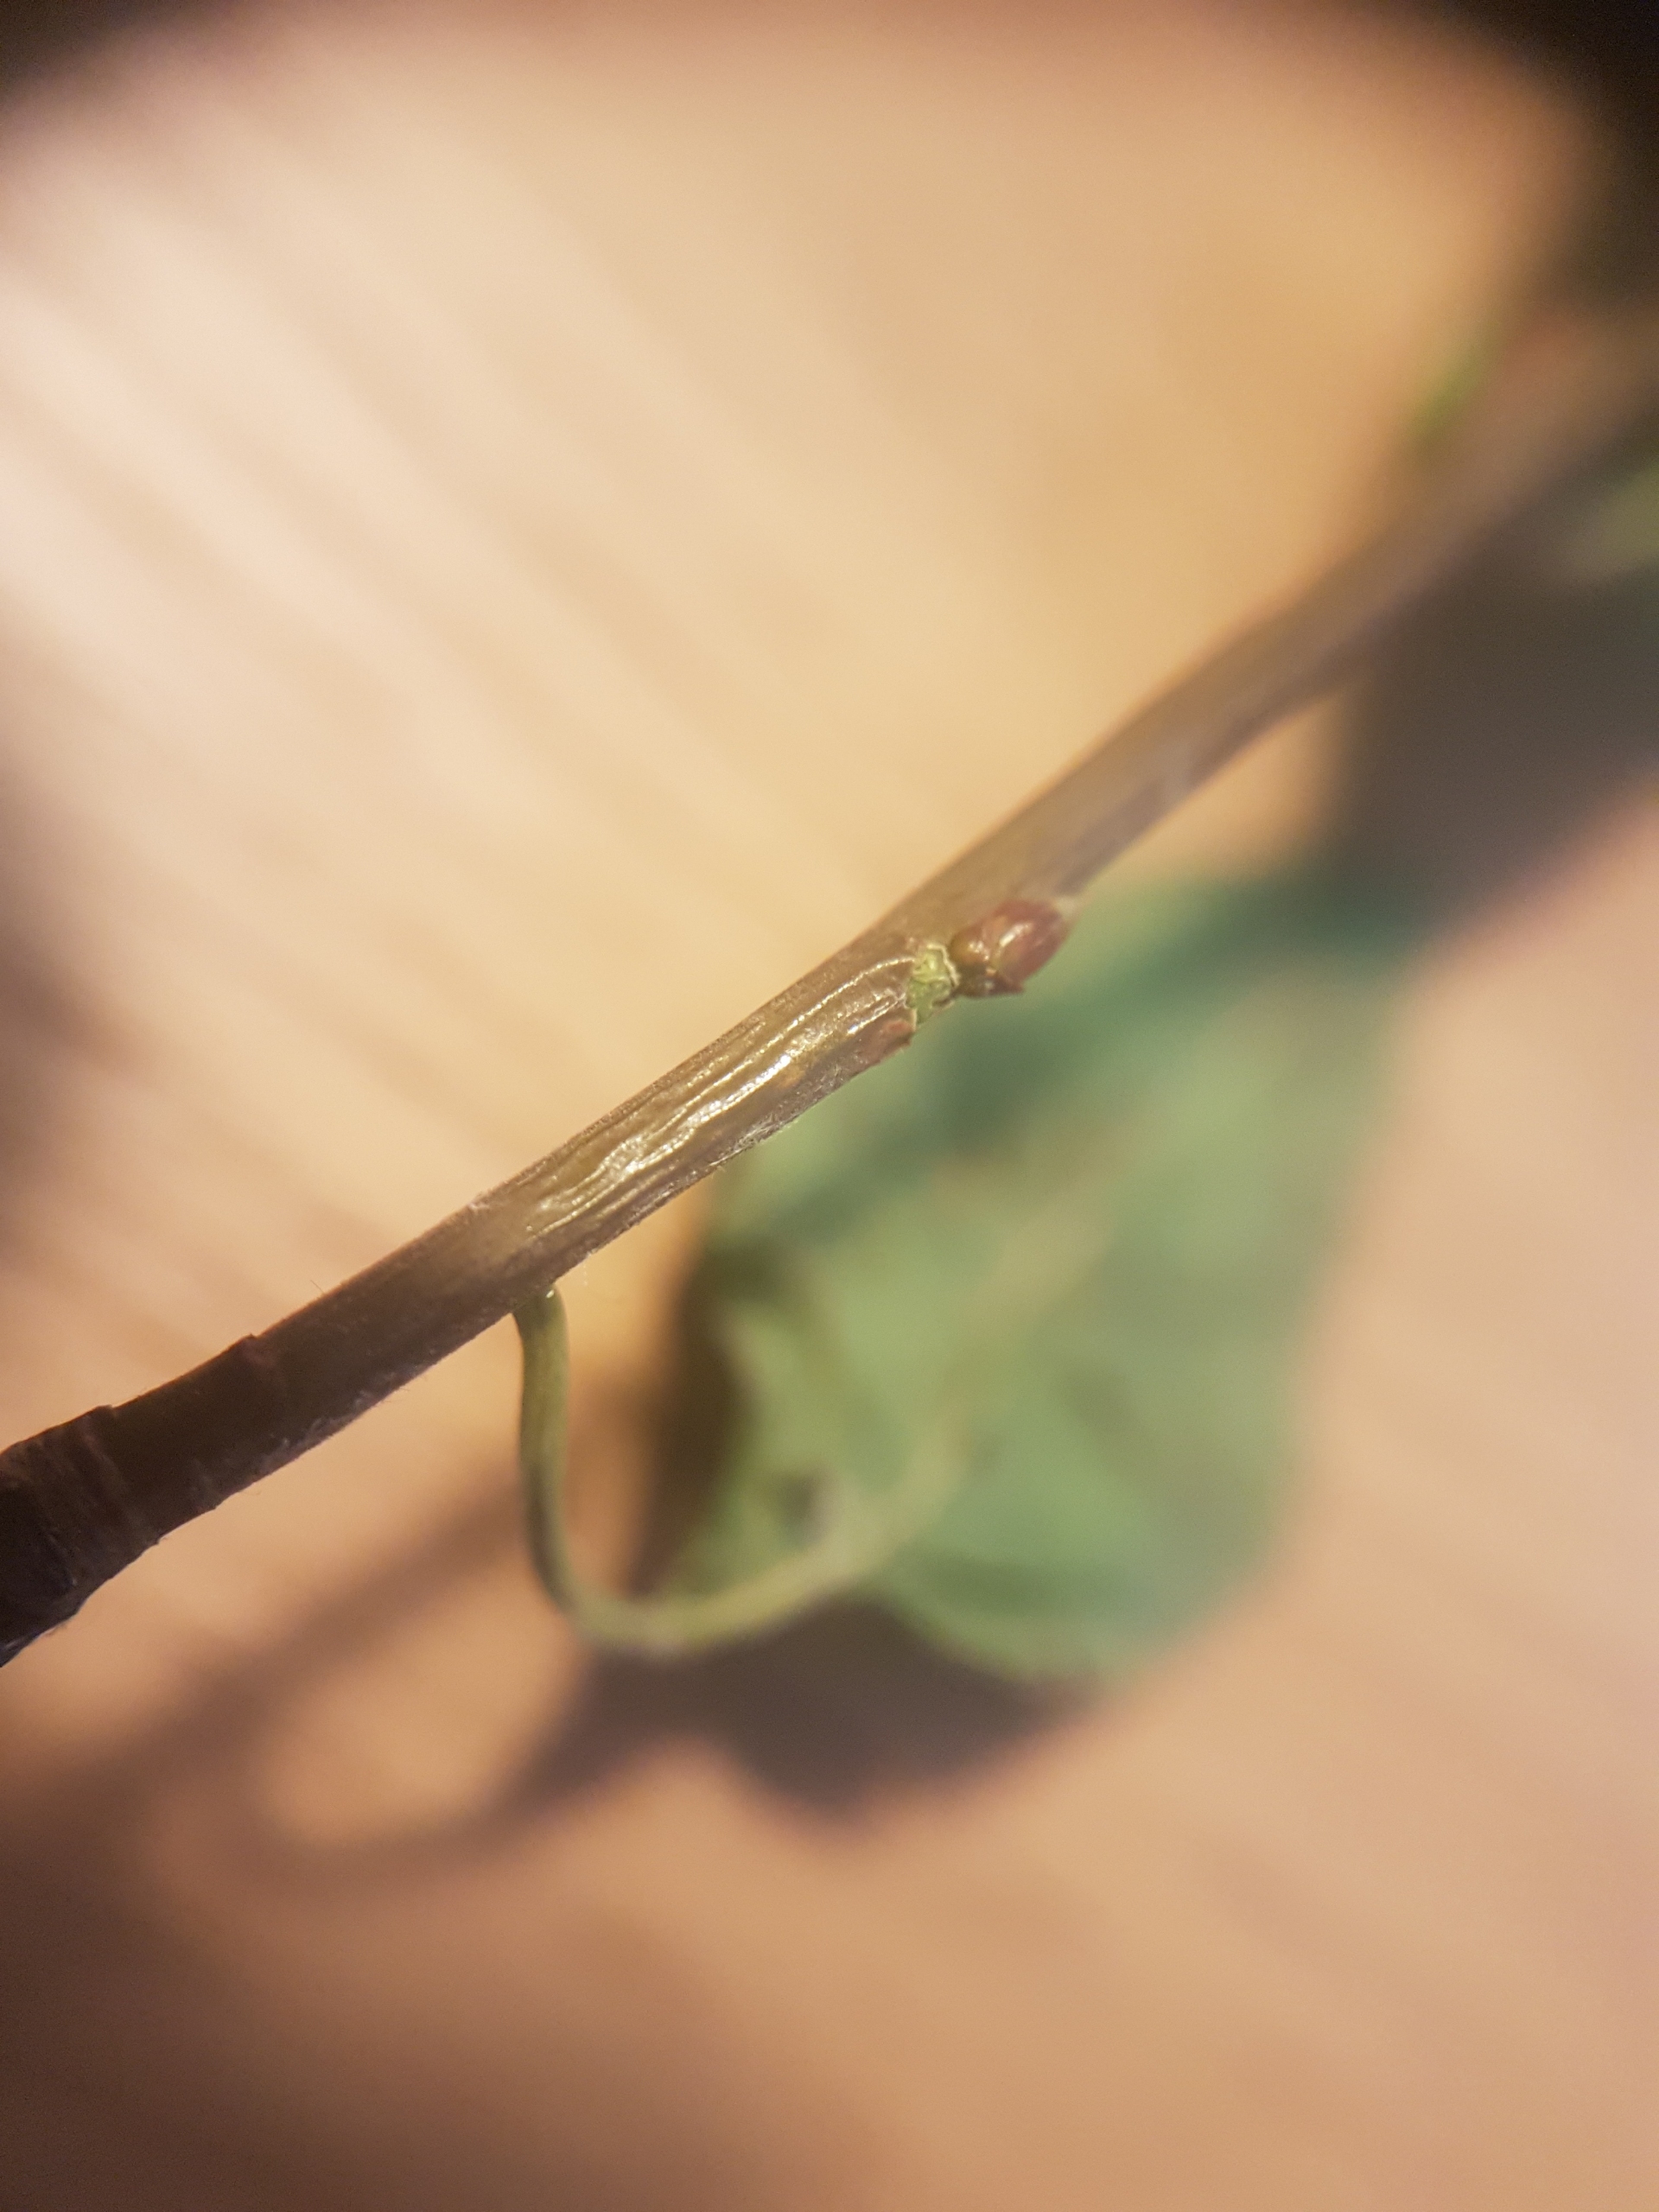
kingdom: Plantae
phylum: Tracheophyta
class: Magnoliopsida
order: Rosales
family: Rosaceae
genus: Prunus
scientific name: Prunus padus
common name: Almindelig hæg
